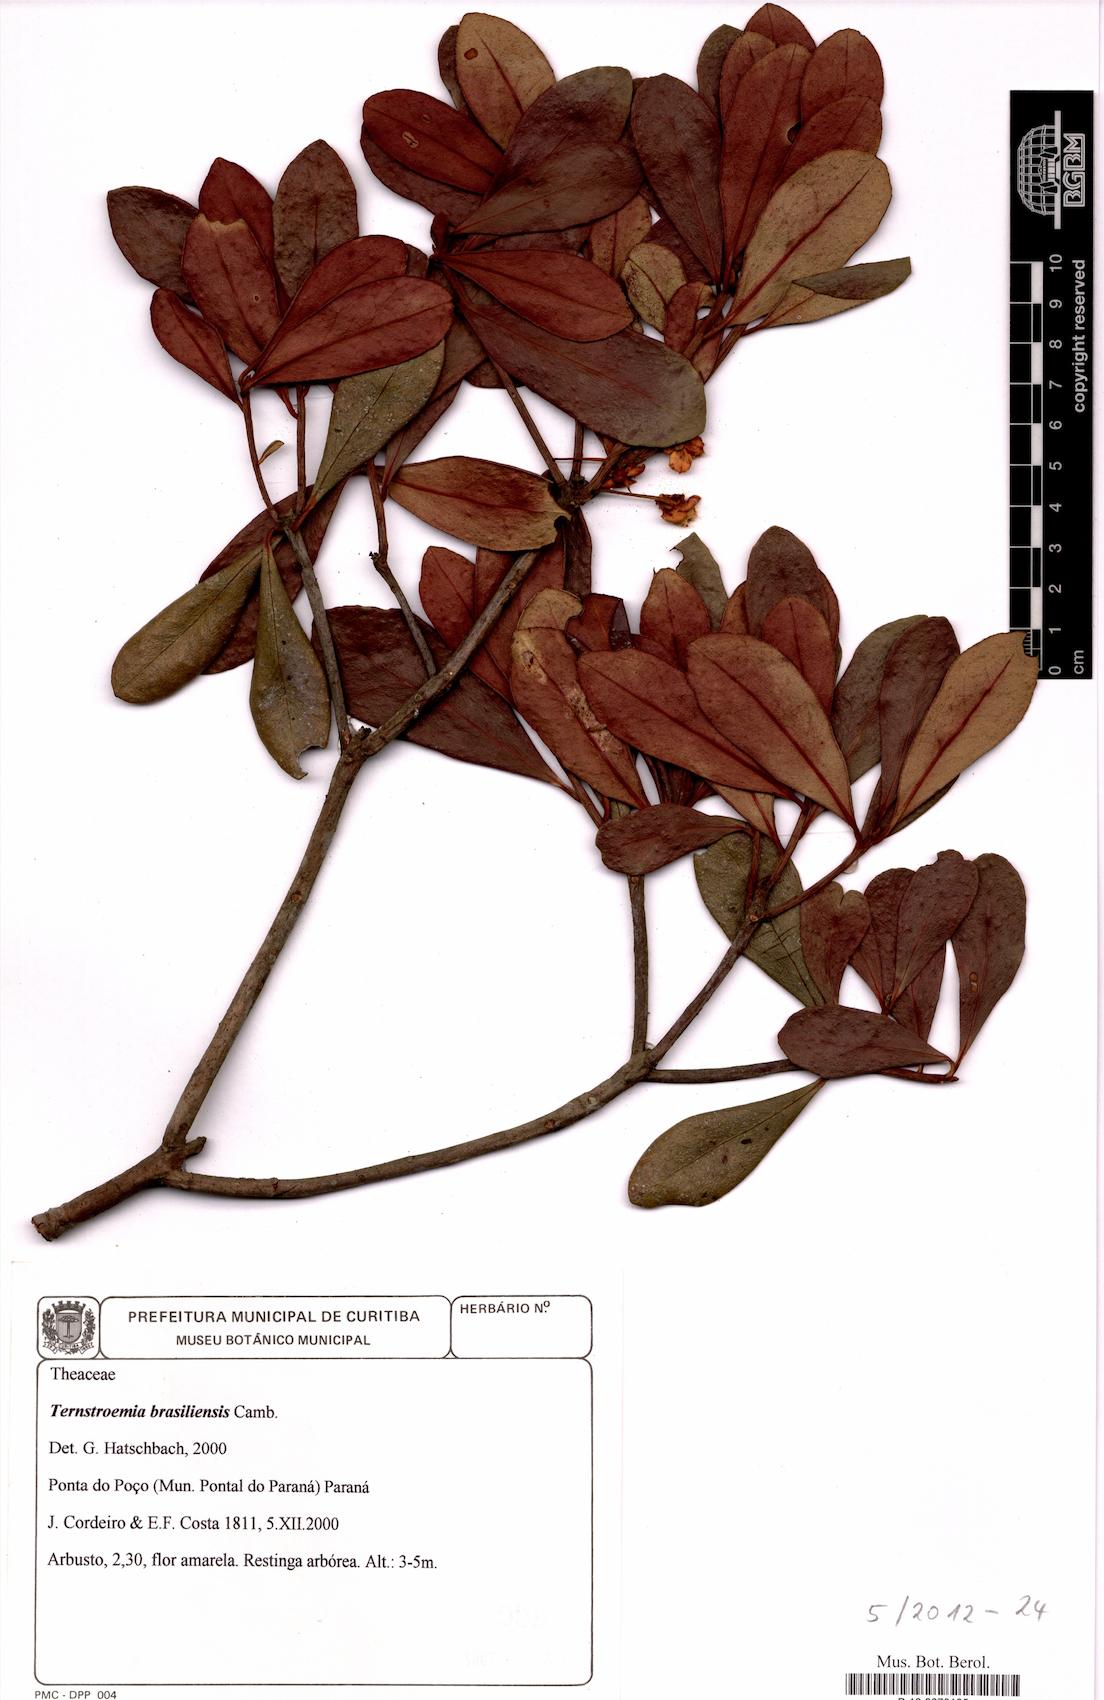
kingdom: Plantae
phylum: Tracheophyta
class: Magnoliopsida
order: Ericales
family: Pentaphylacaceae
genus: Ternstroemia
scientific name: Ternstroemia brasiliensis
